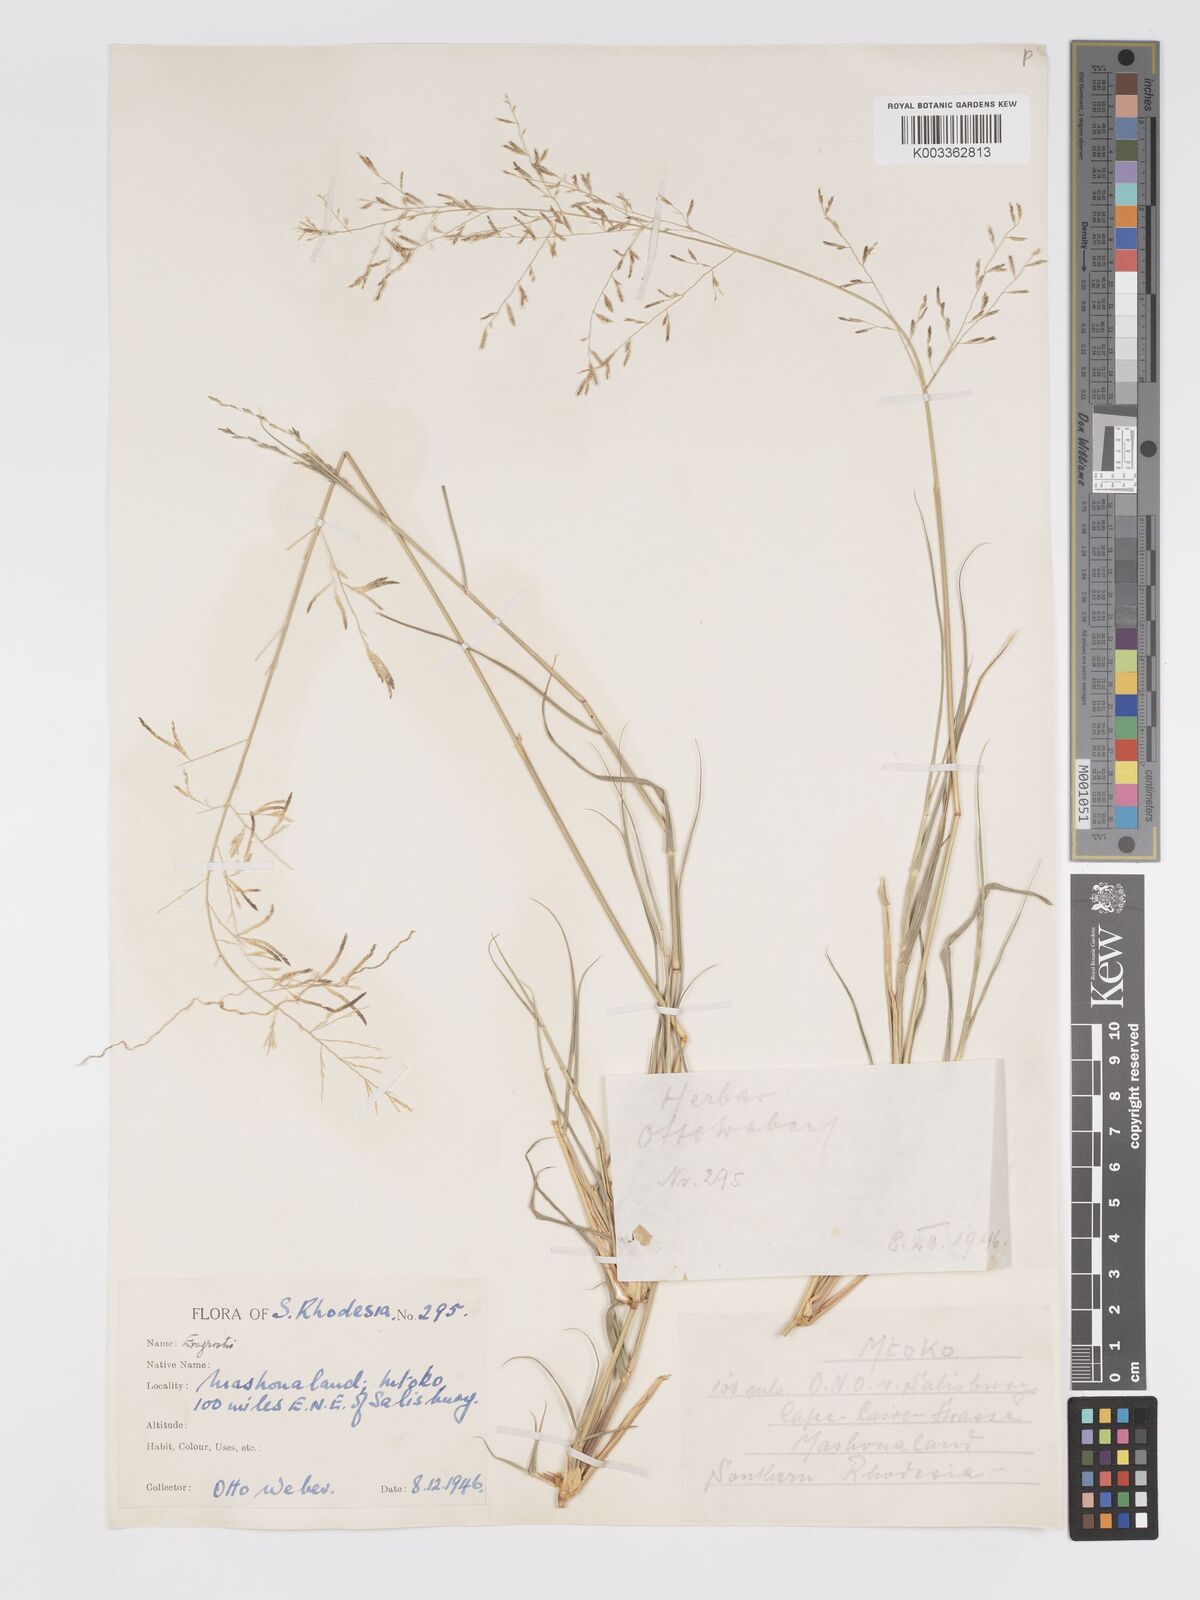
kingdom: Plantae
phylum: Tracheophyta
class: Liliopsida
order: Poales
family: Poaceae
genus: Eragrostis
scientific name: Eragrostis cylindriflora
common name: Cylinderflower lovegrass
